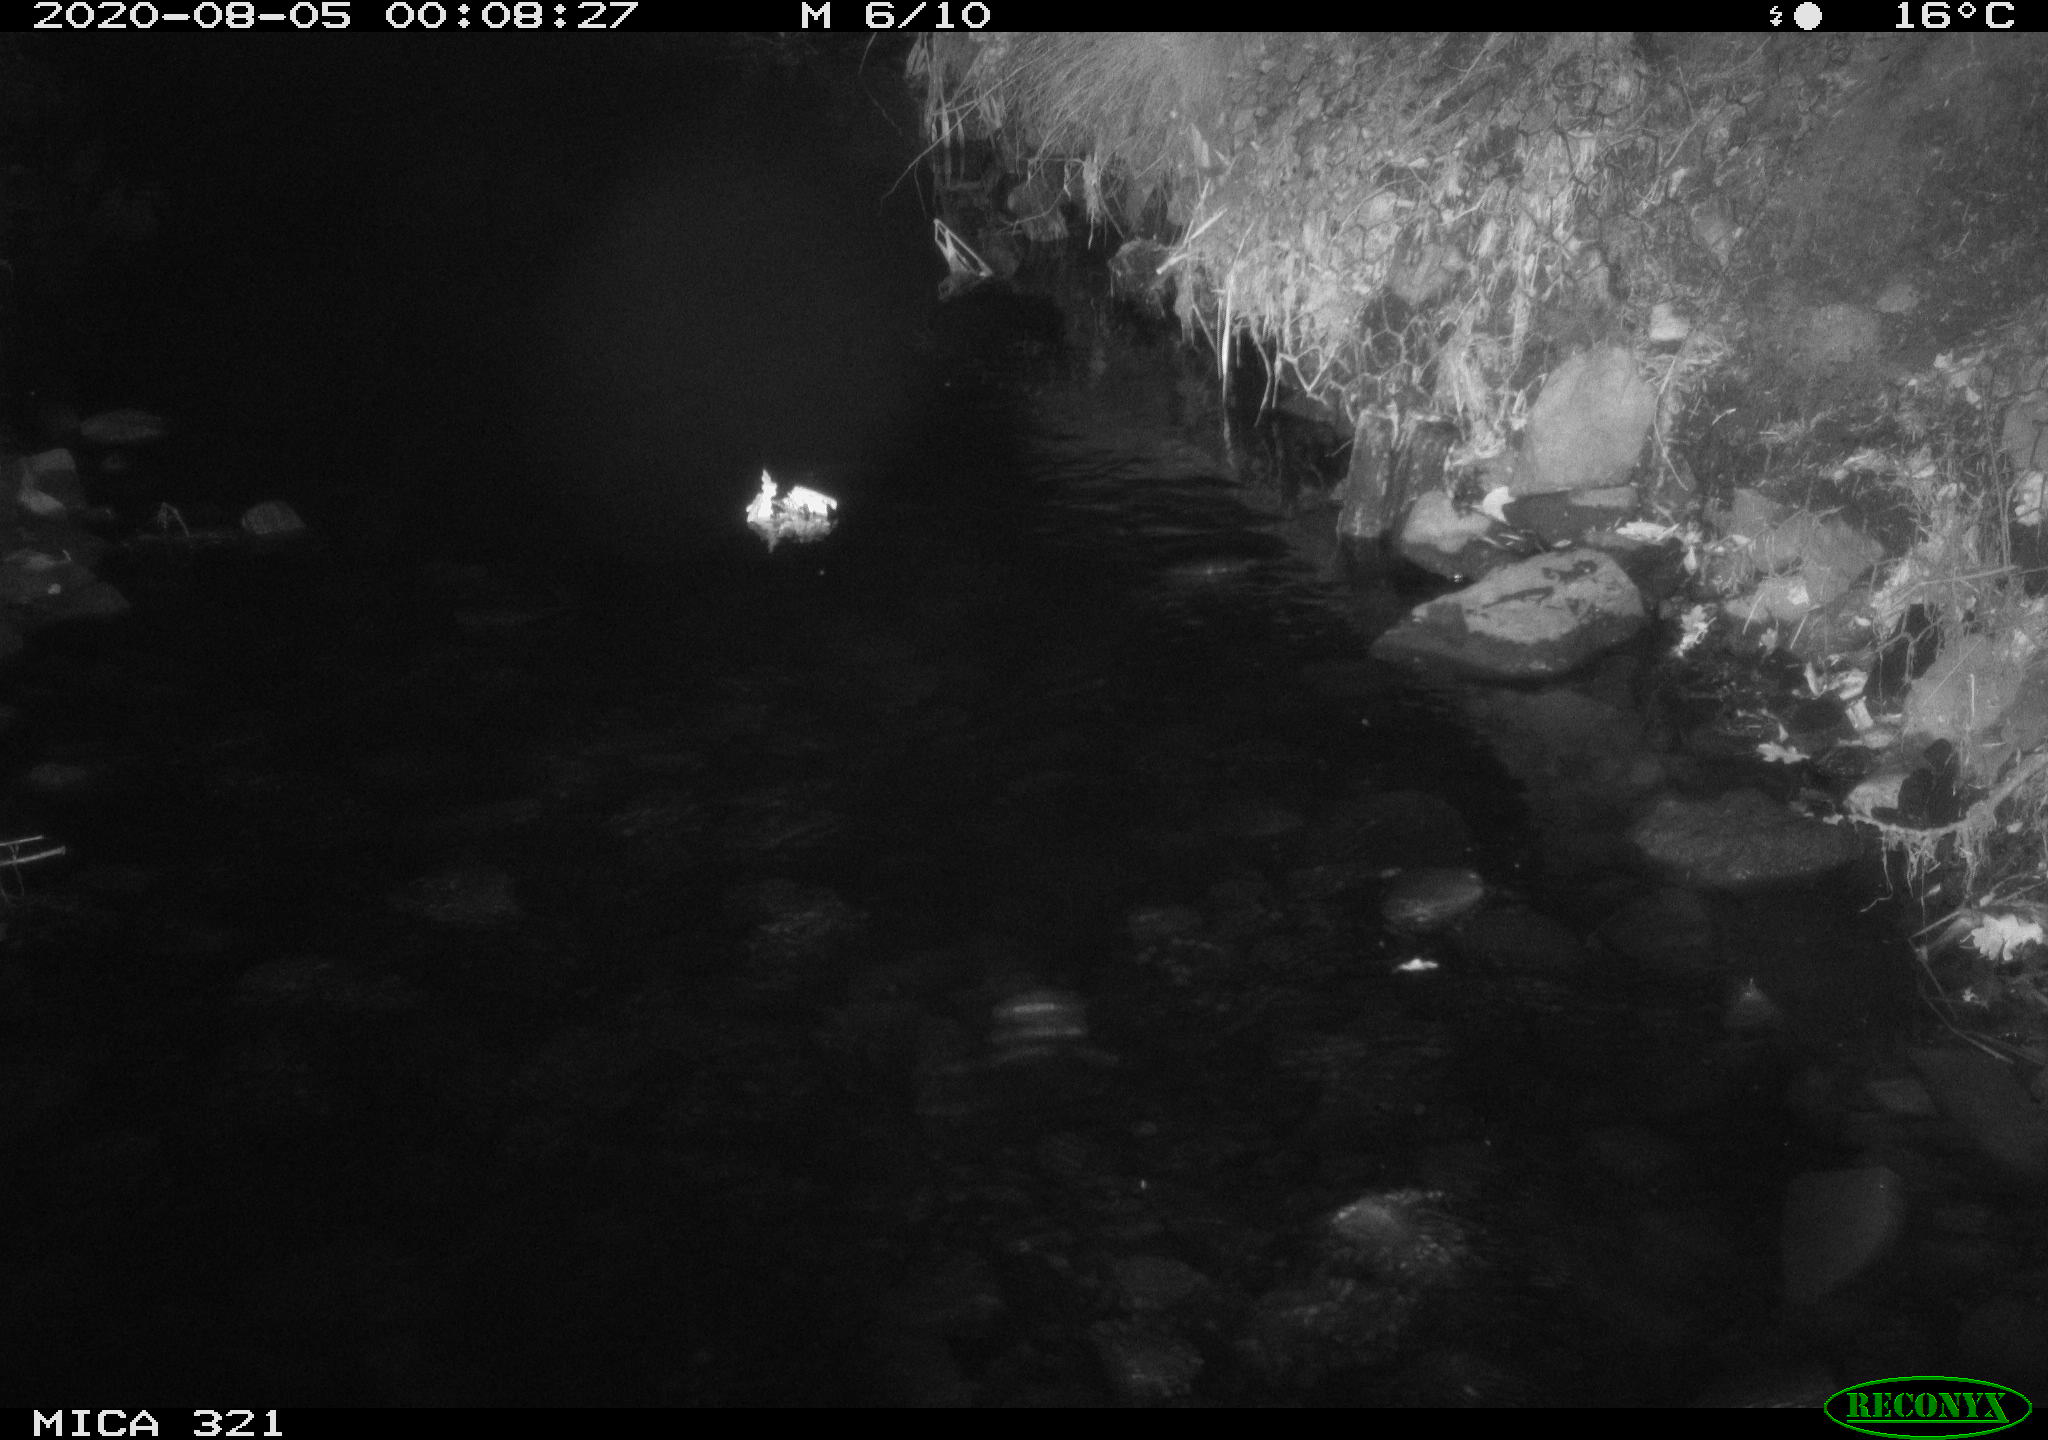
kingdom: Animalia
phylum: Chordata
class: Mammalia
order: Rodentia
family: Muridae
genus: Rattus
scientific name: Rattus norvegicus
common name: Brown rat
